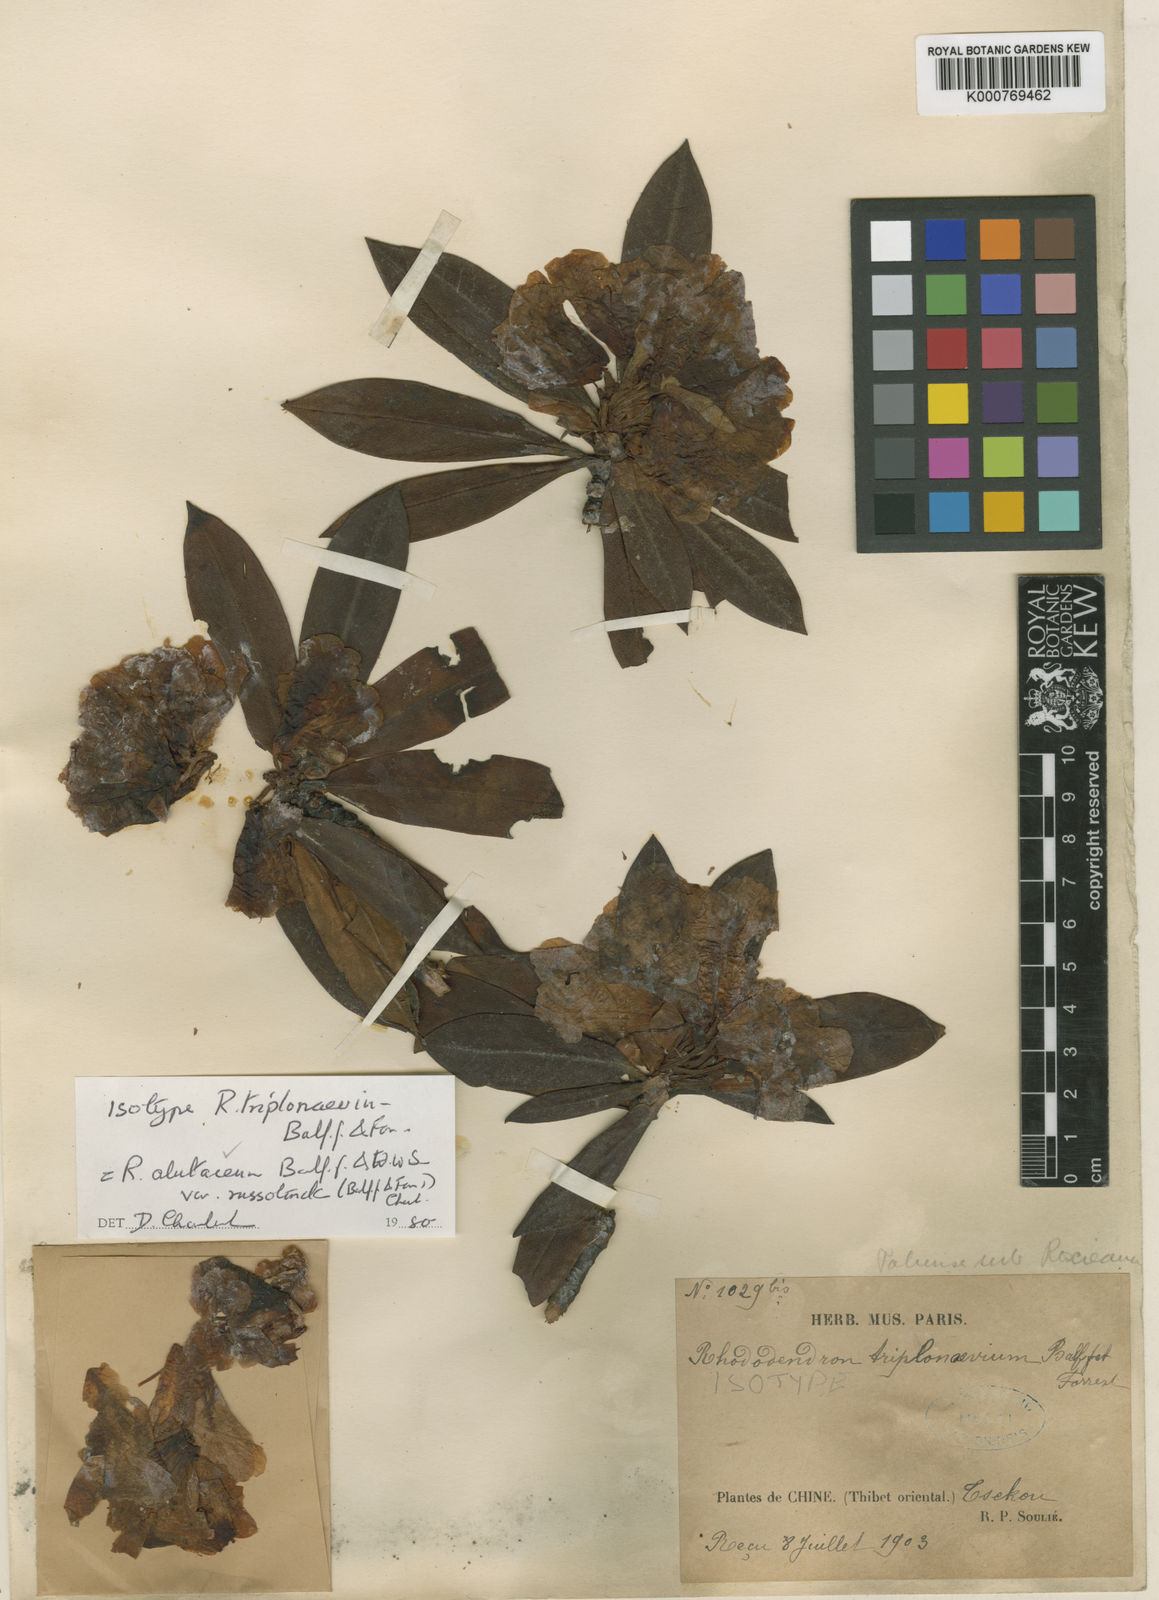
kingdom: Plantae
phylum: Tracheophyta
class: Magnoliopsida
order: Ericales
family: Ericaceae
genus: Rhododendron
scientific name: Rhododendron alutaceum
